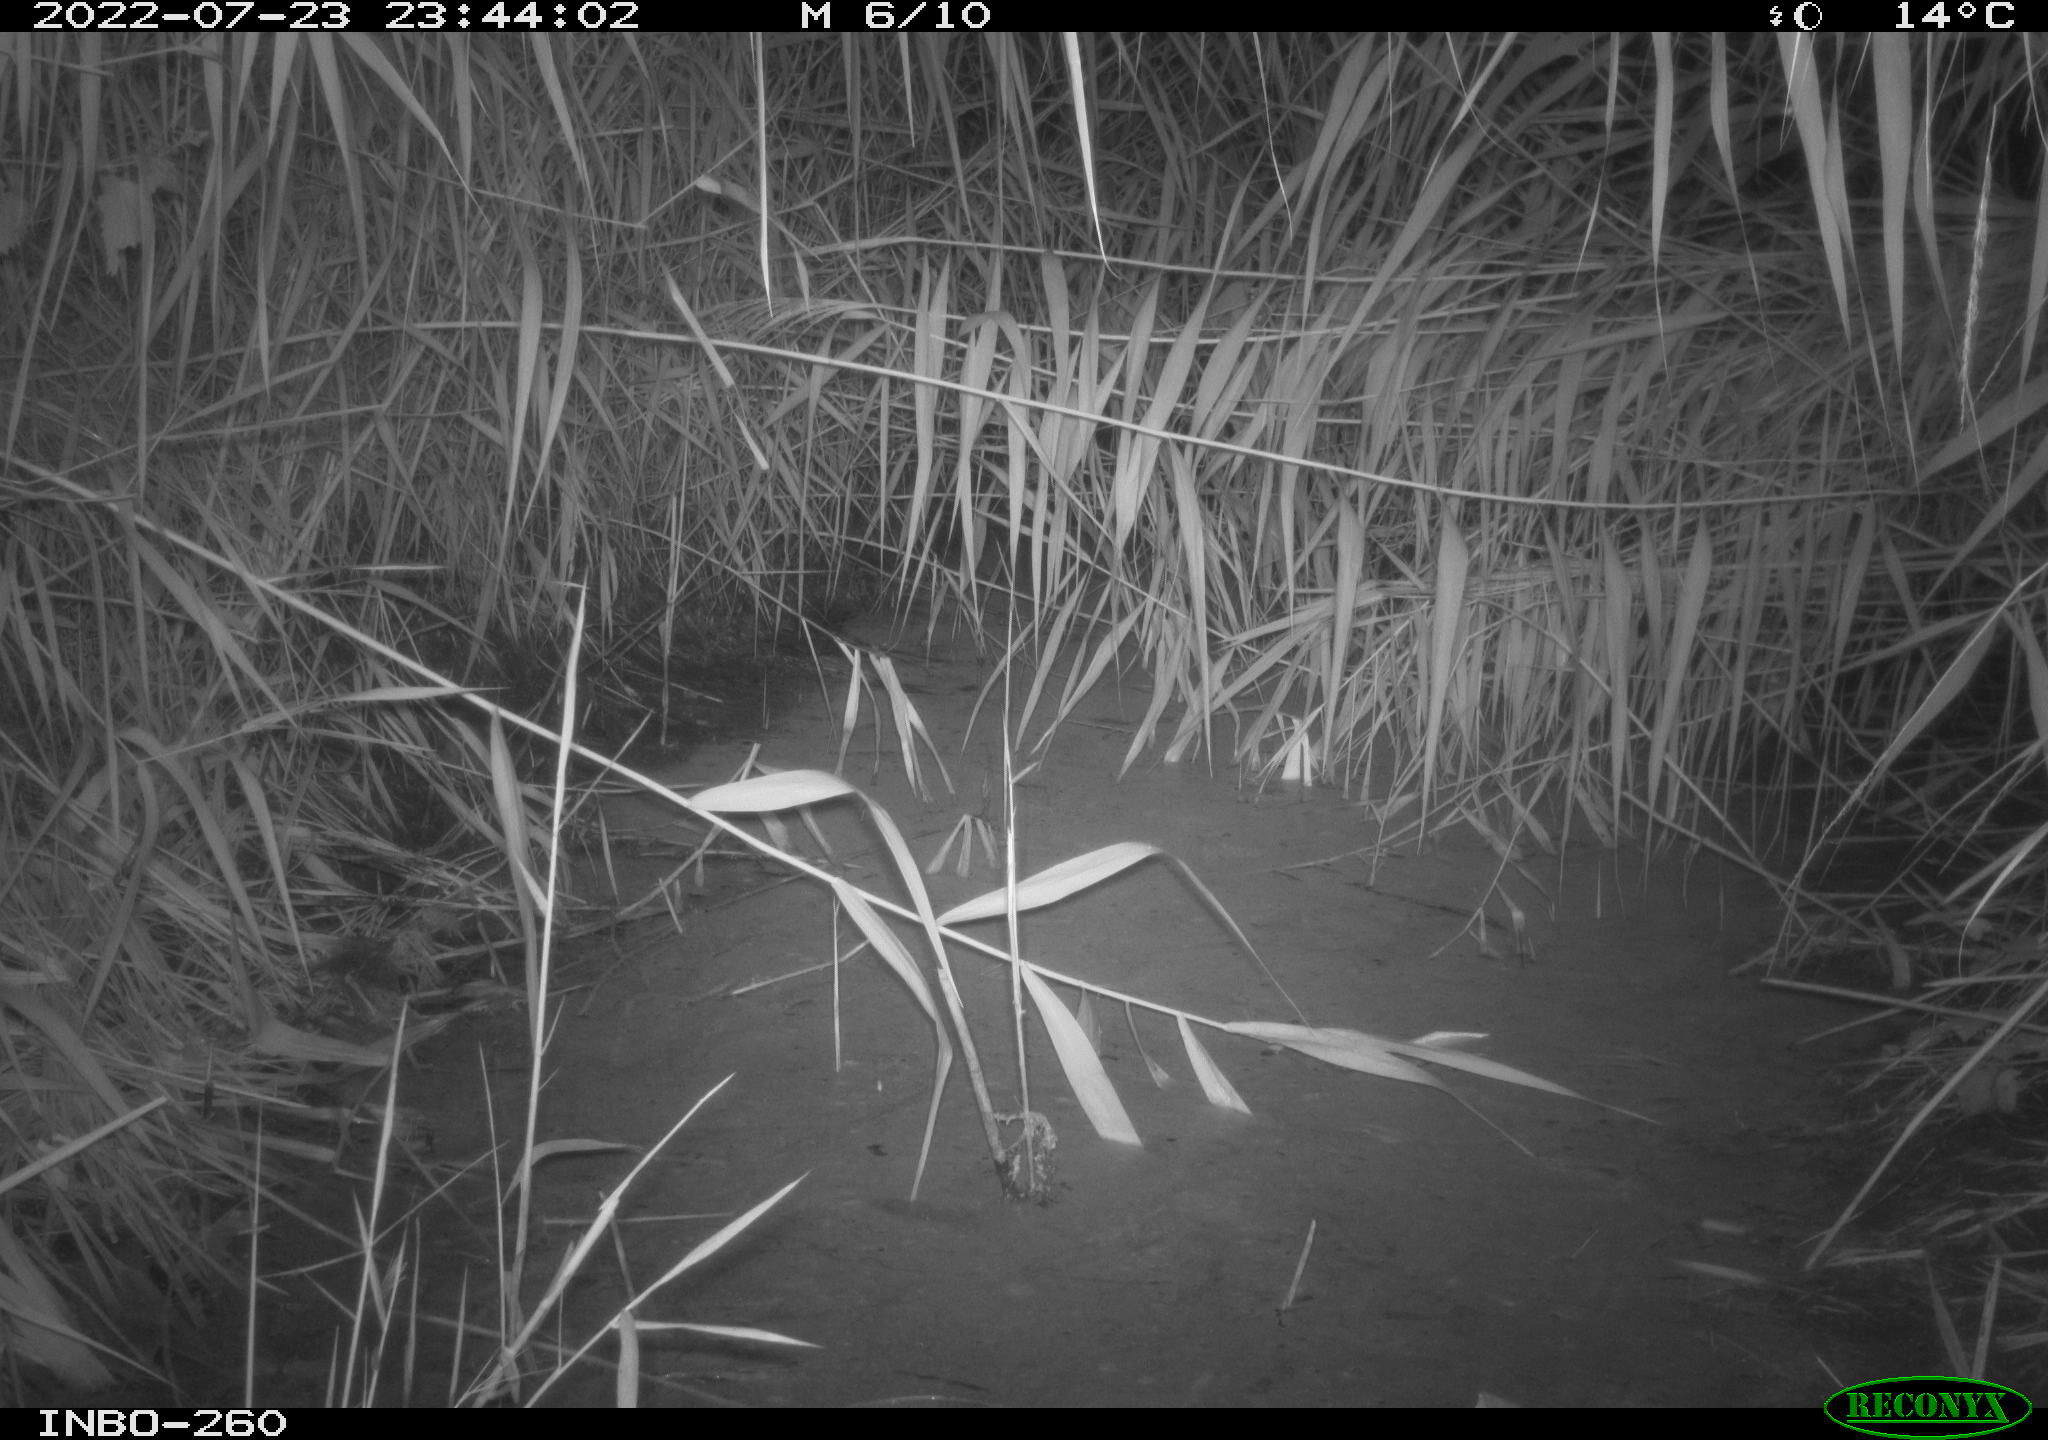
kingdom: Animalia
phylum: Chordata
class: Mammalia
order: Rodentia
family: Muridae
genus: Rattus
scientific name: Rattus norvegicus
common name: Brown rat
